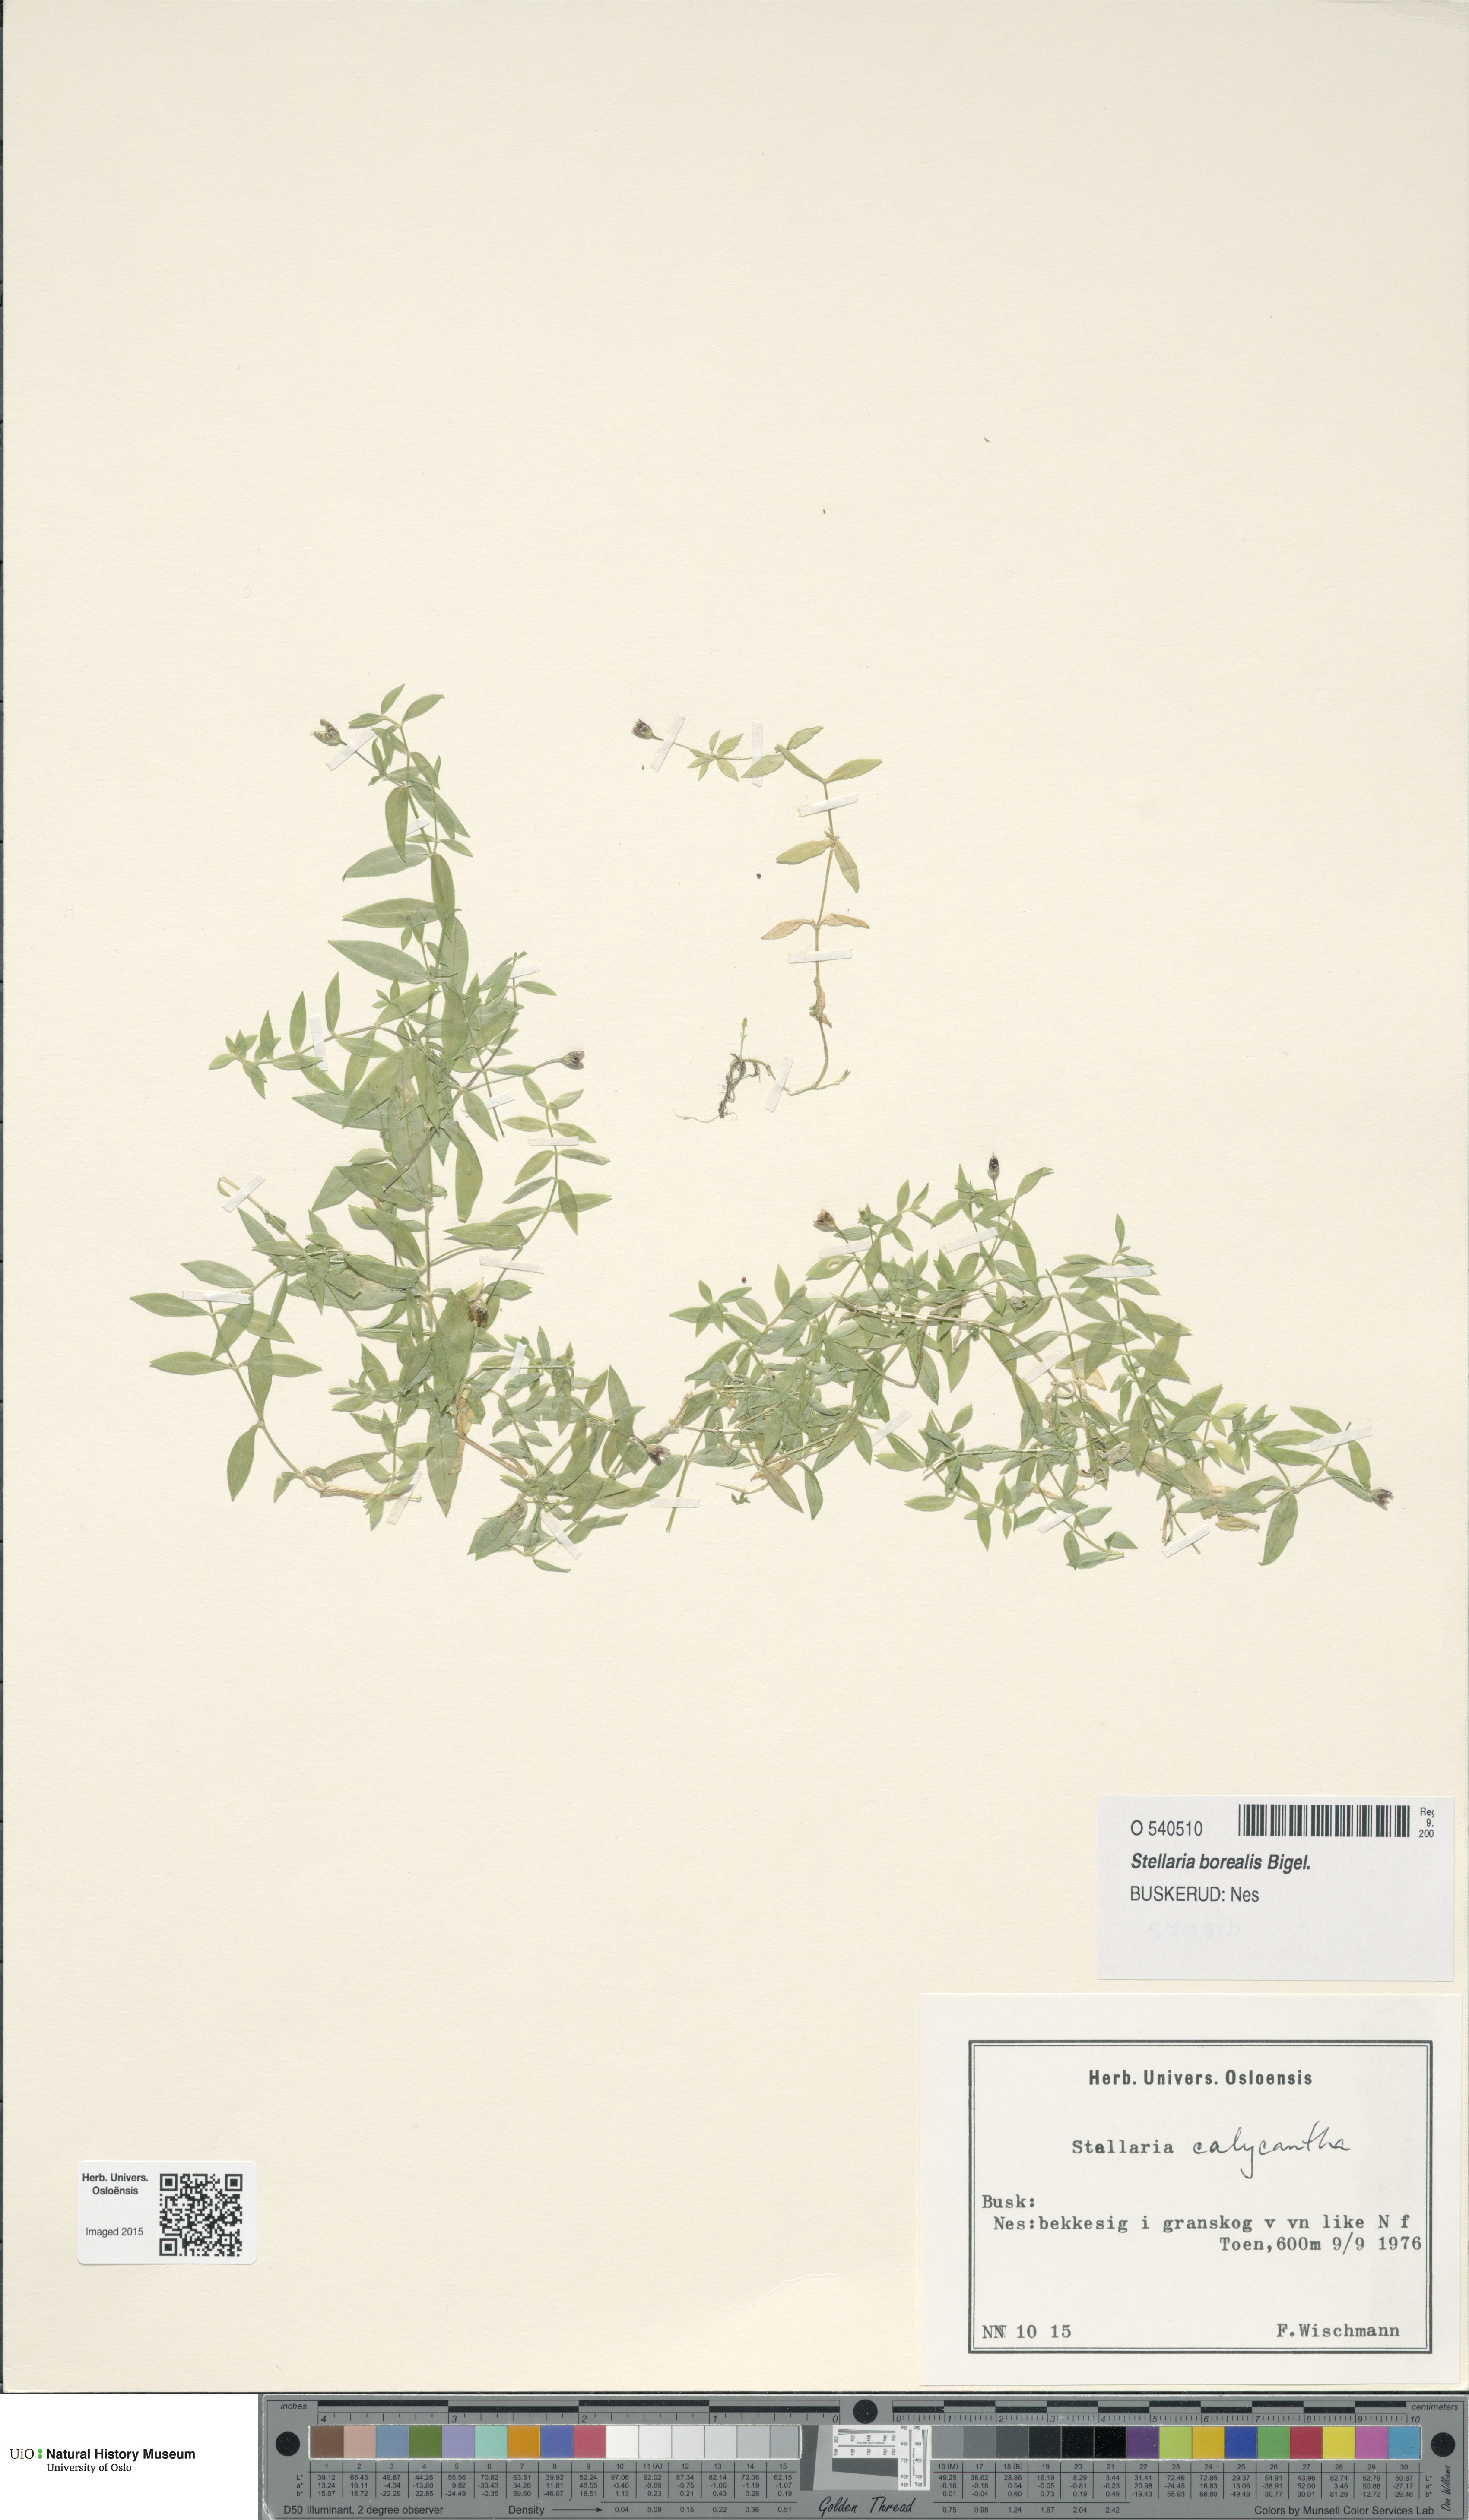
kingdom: Plantae
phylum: Tracheophyta
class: Magnoliopsida
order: Caryophyllales
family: Caryophyllaceae
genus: Stellaria
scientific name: Stellaria borealis
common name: Boreal starwort
